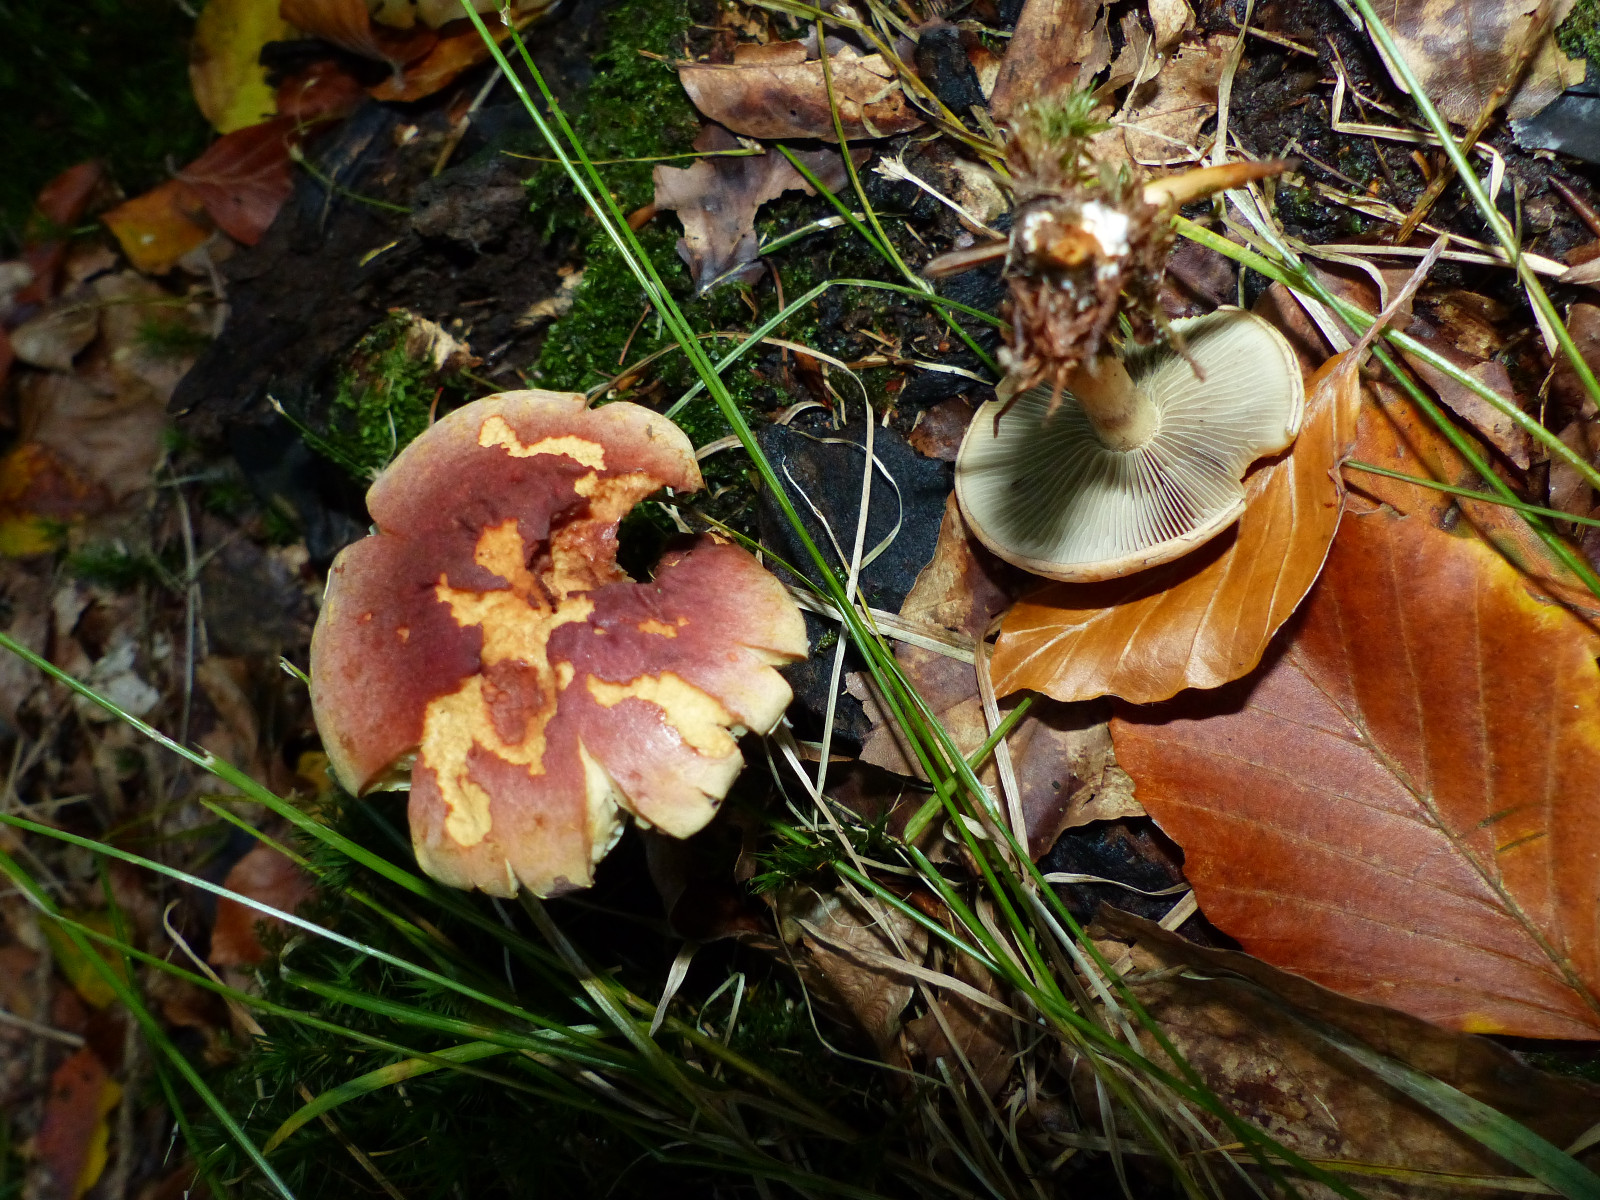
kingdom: Fungi
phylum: Basidiomycota
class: Agaricomycetes
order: Agaricales
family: Strophariaceae
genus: Hypholoma
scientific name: Hypholoma lateritium
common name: teglrød svovlhat
